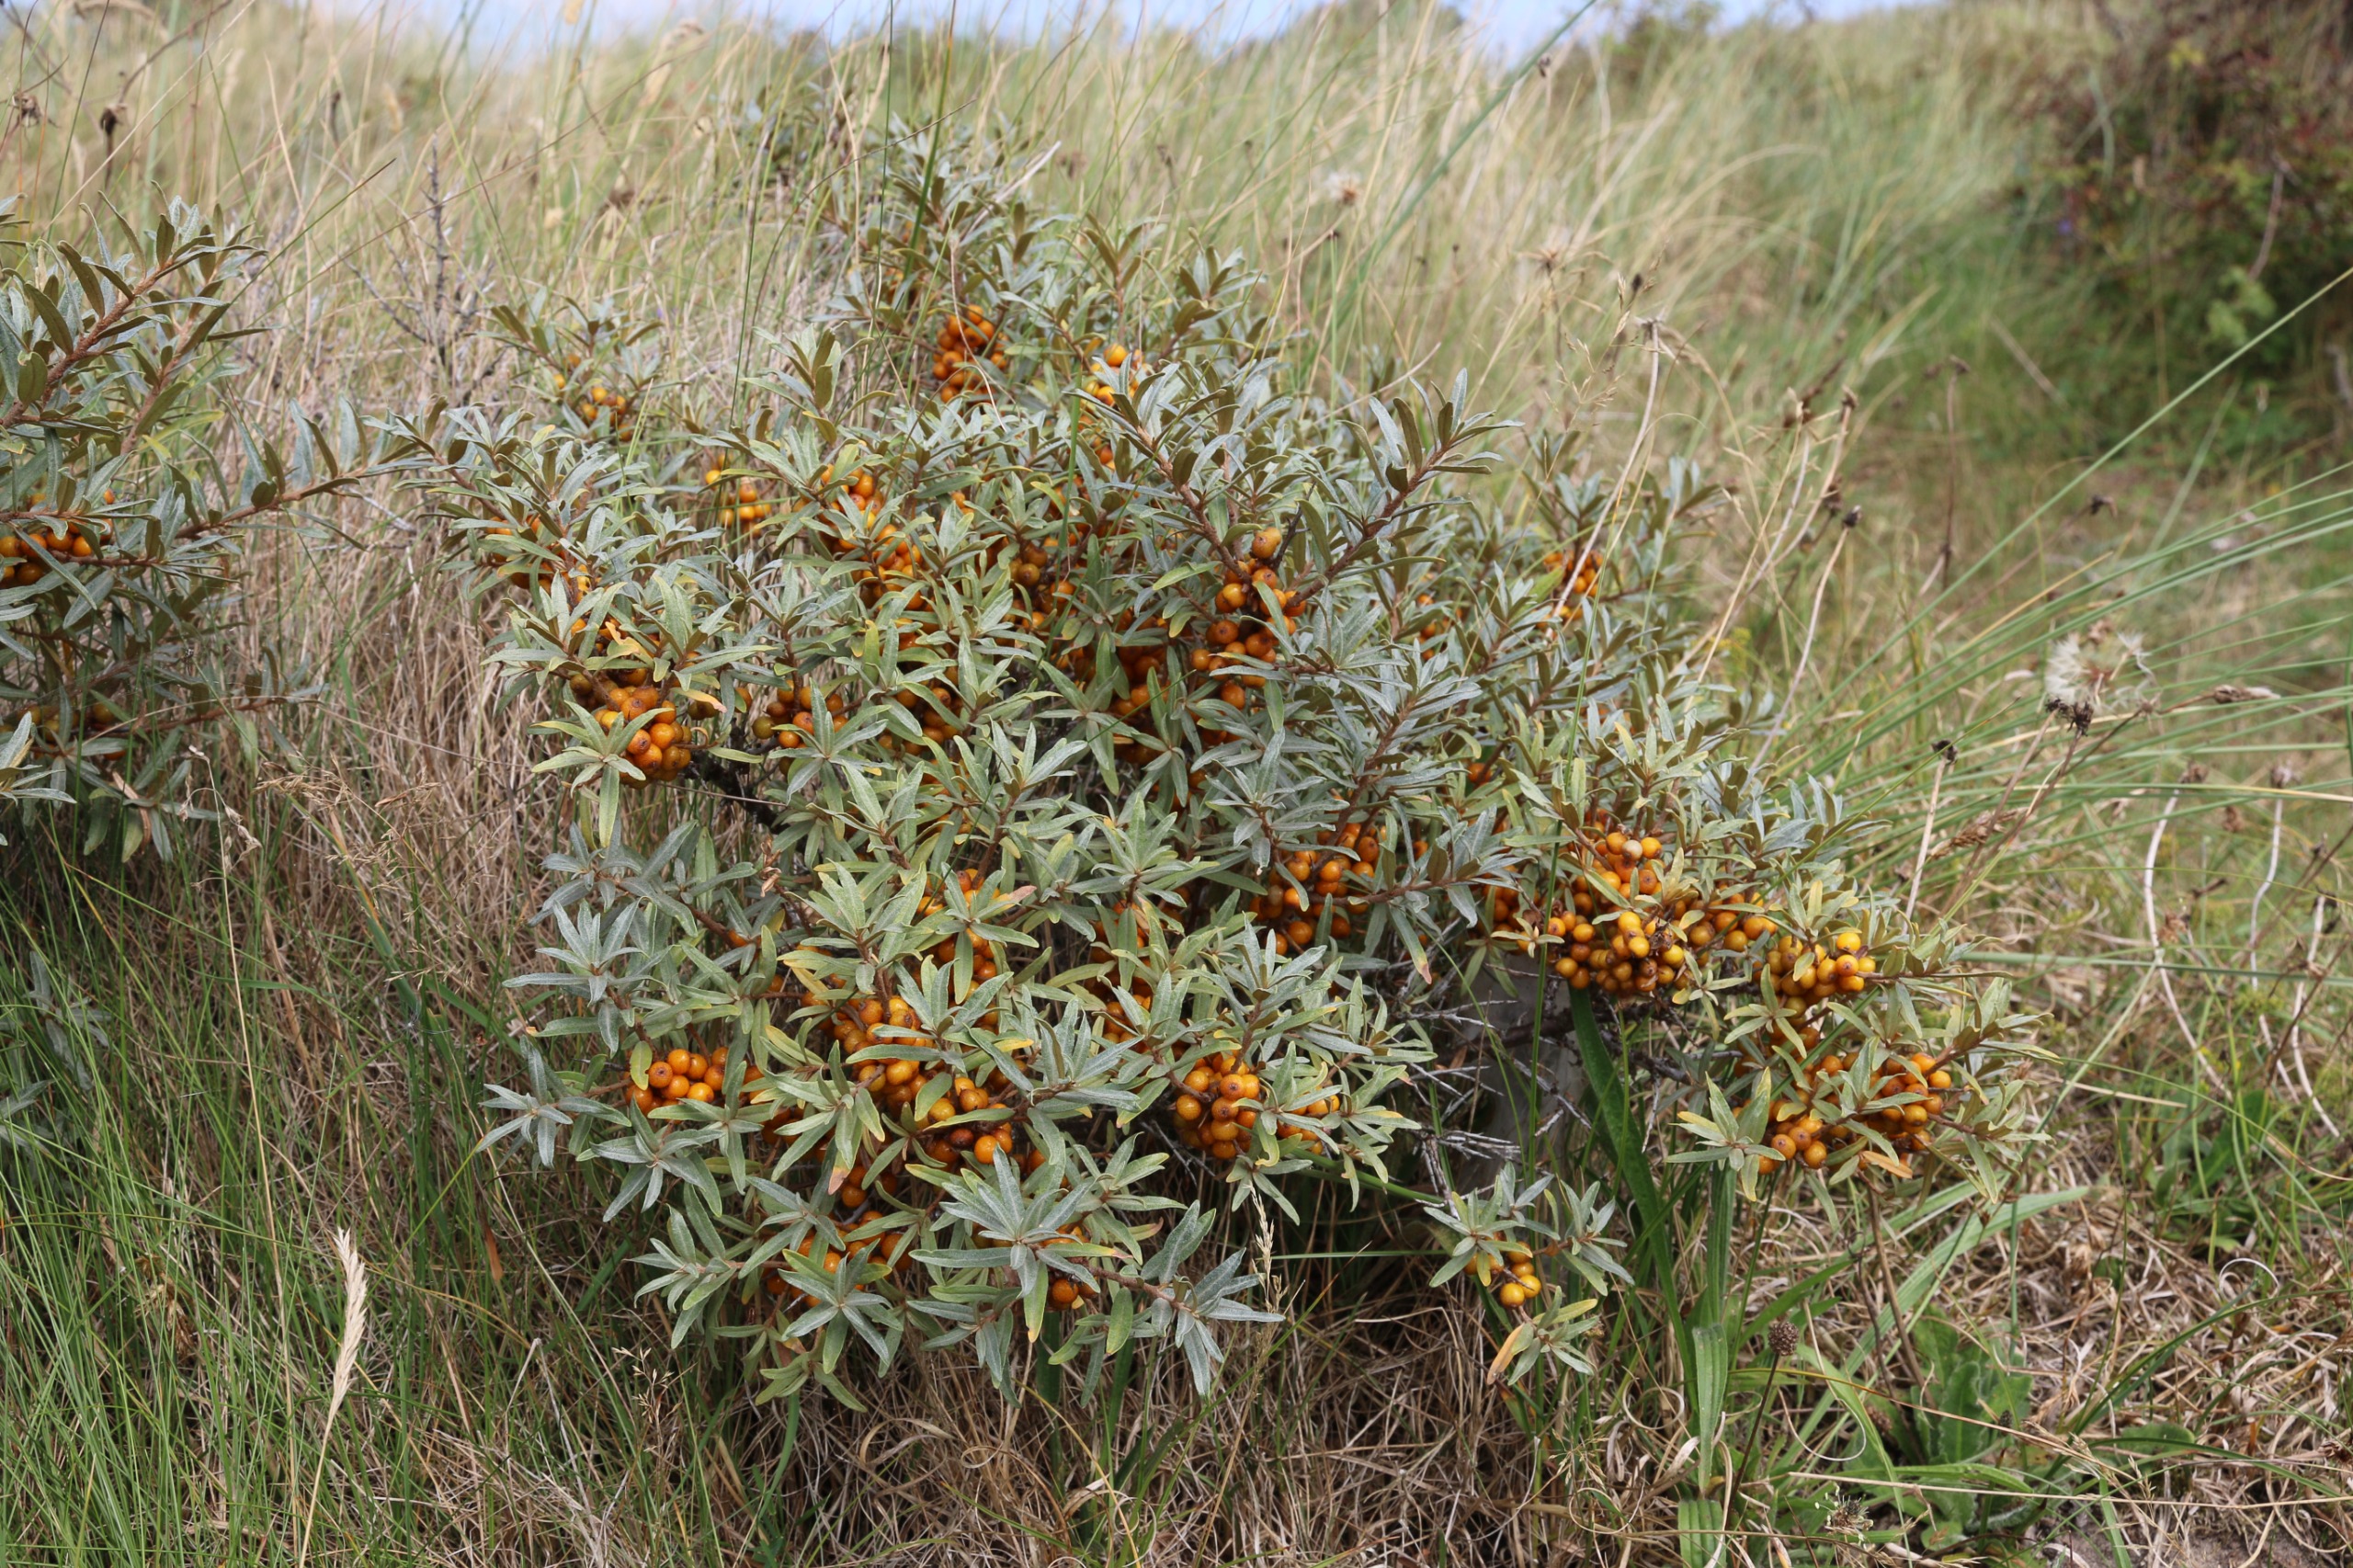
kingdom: Plantae
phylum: Tracheophyta
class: Magnoliopsida
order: Rosales
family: Elaeagnaceae
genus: Hippophae
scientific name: Hippophae rhamnoides
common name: Havtorn
